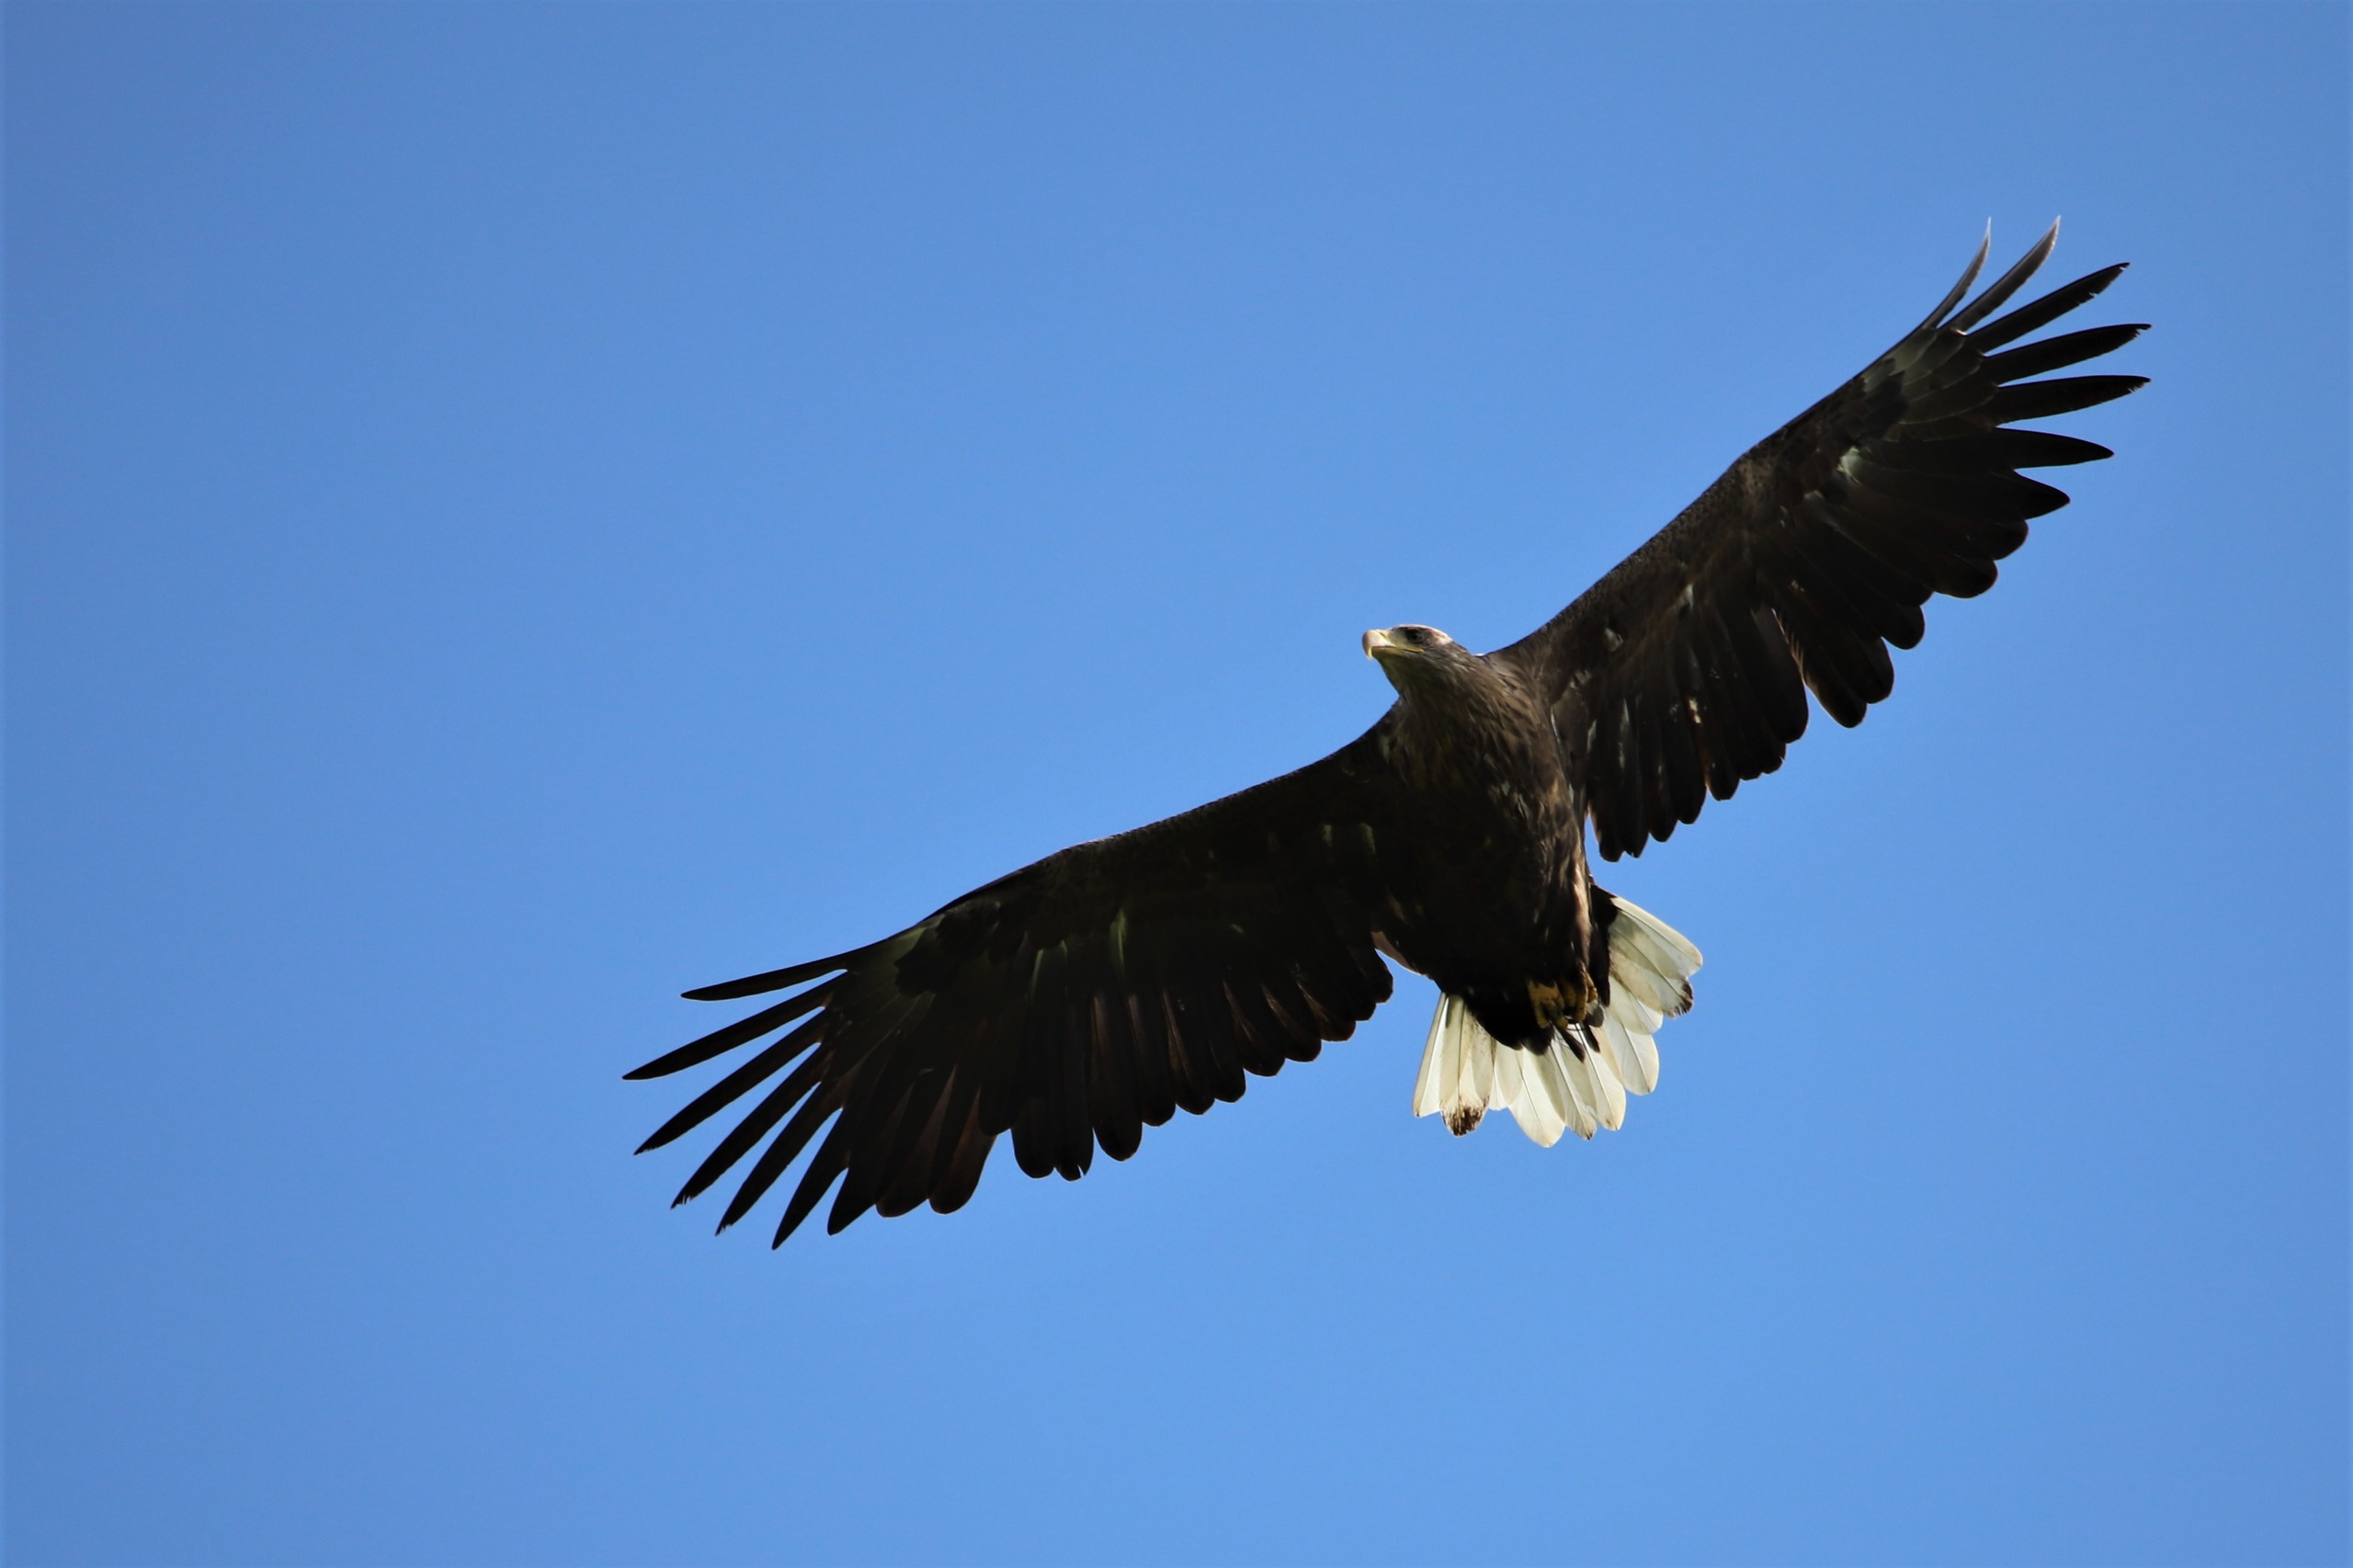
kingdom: Animalia
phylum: Chordata
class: Aves
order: Accipitriformes
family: Accipitridae
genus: Haliaeetus
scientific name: Haliaeetus albicilla
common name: Havørn
